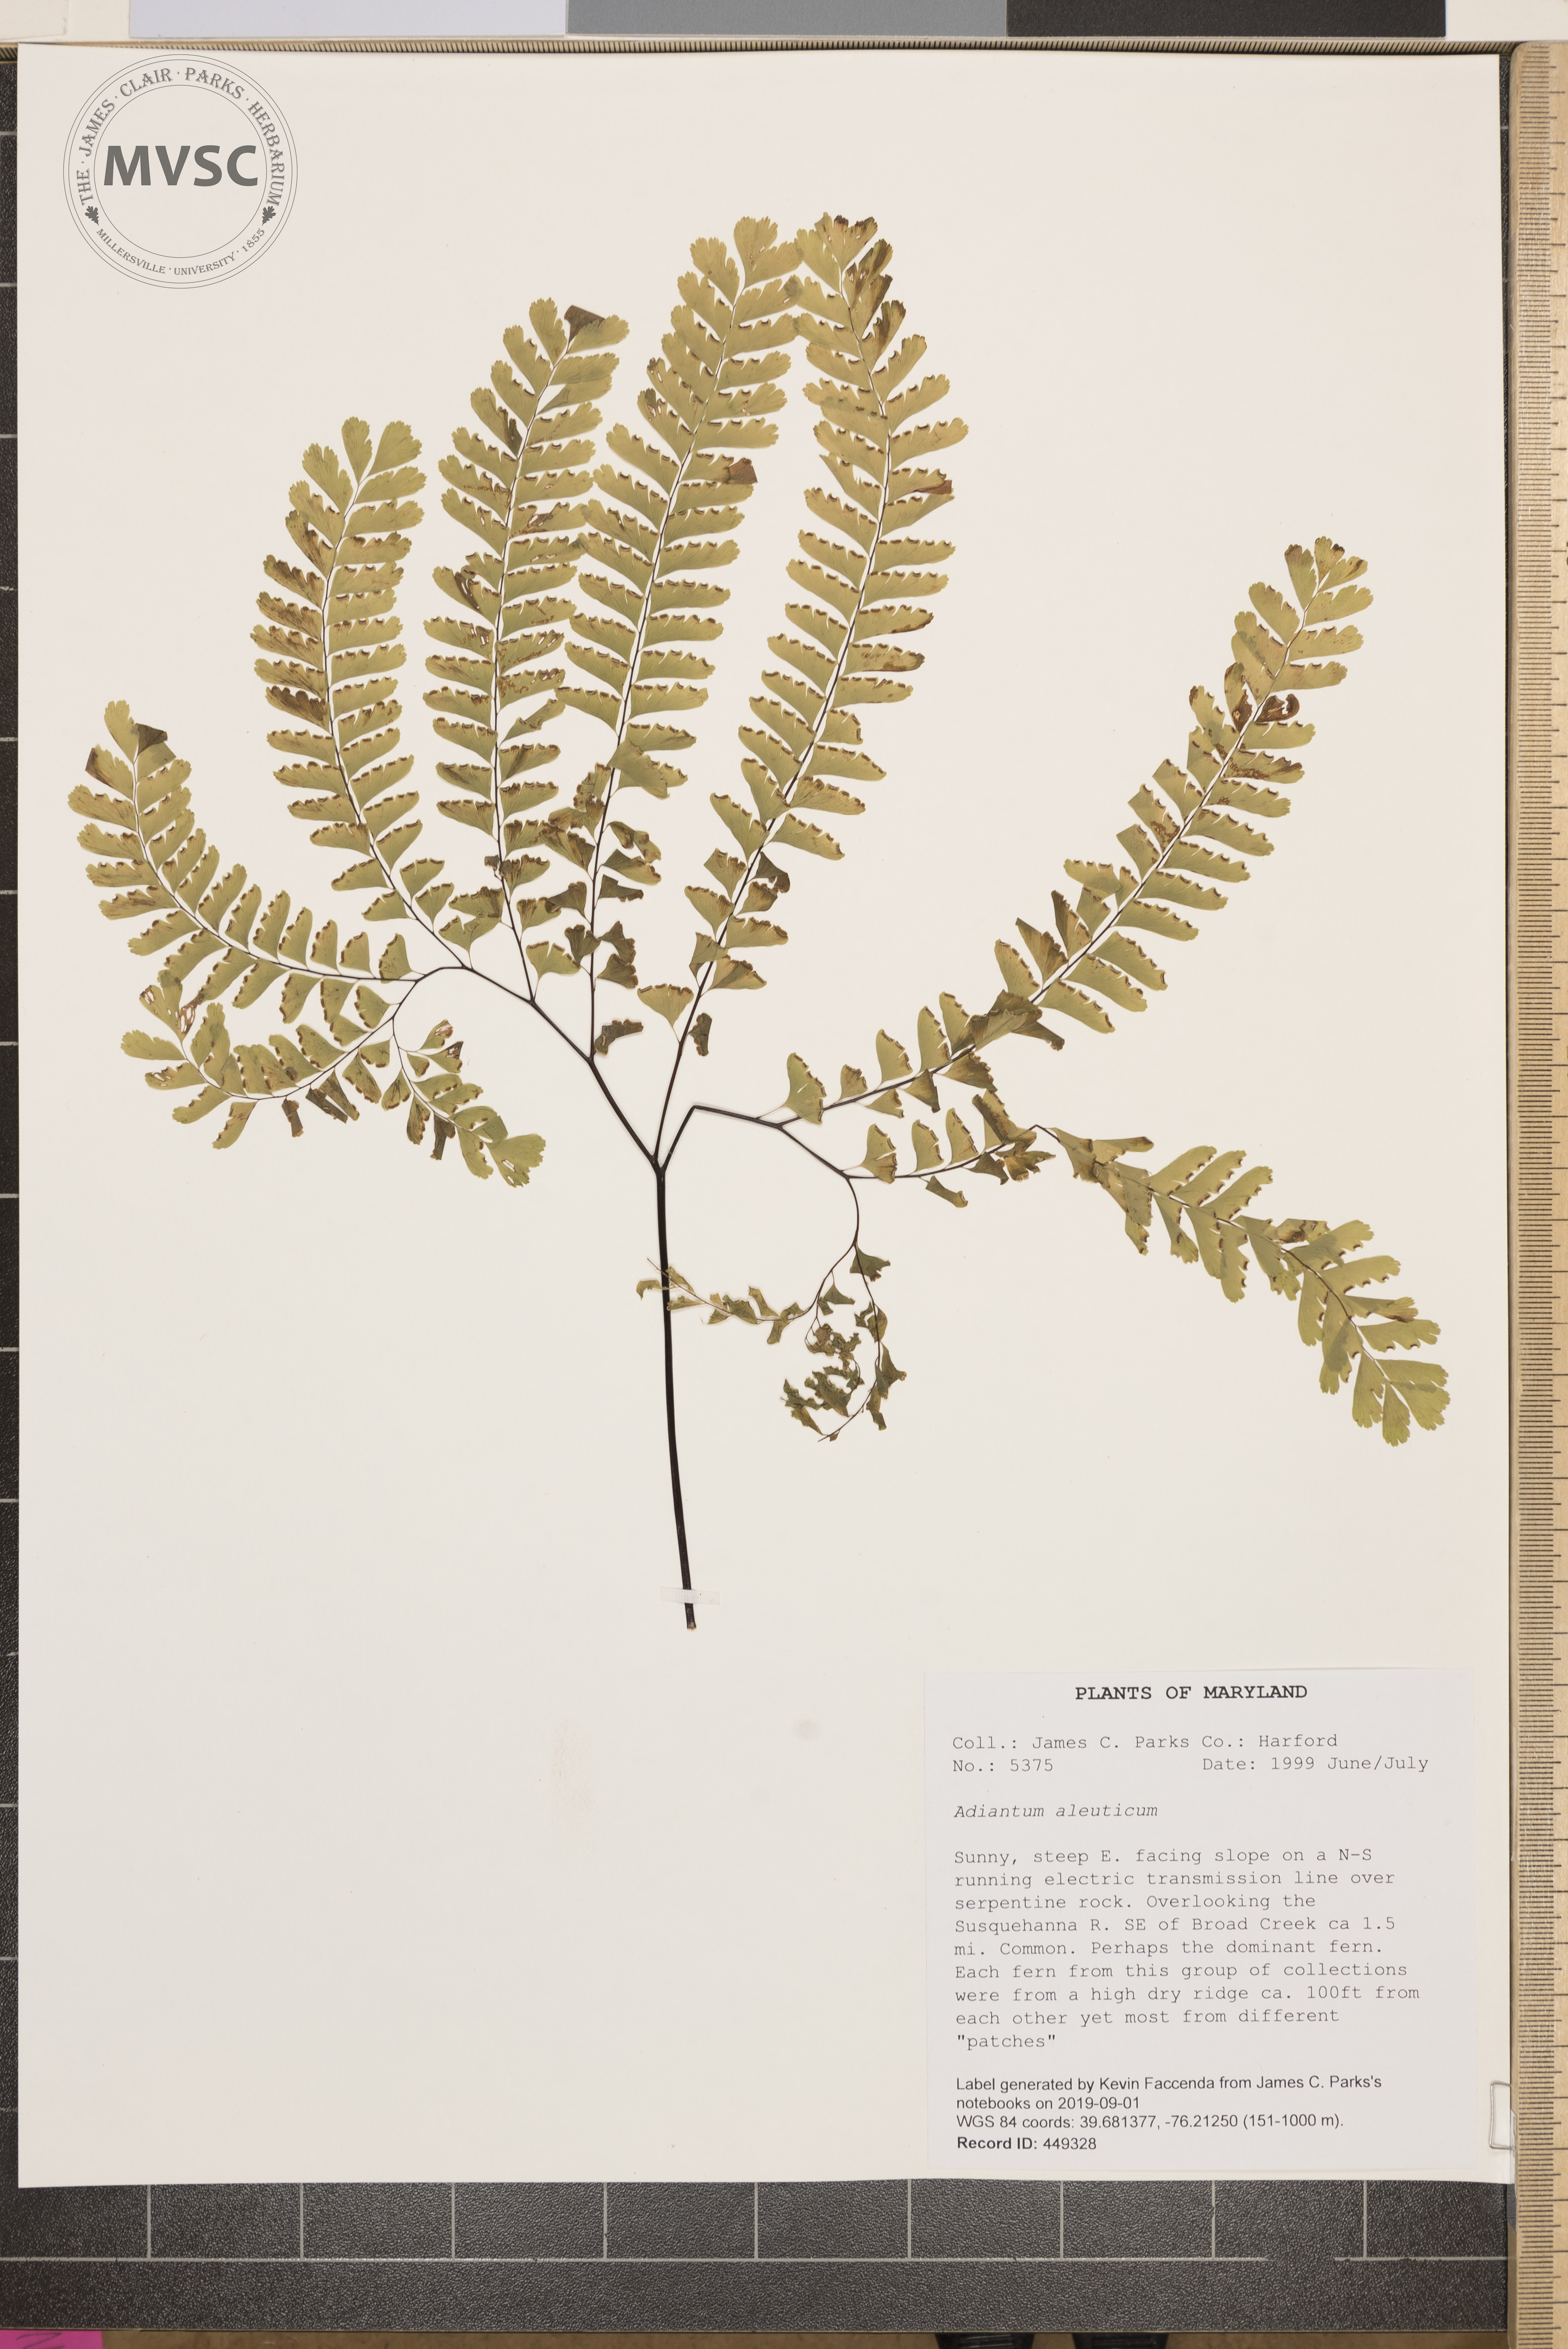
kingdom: Plantae
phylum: Tracheophyta
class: Polypodiopsida
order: Polypodiales
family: Pteridaceae
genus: Adiantum
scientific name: Adiantum aleuticum
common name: Aleutian maidenhair fern
